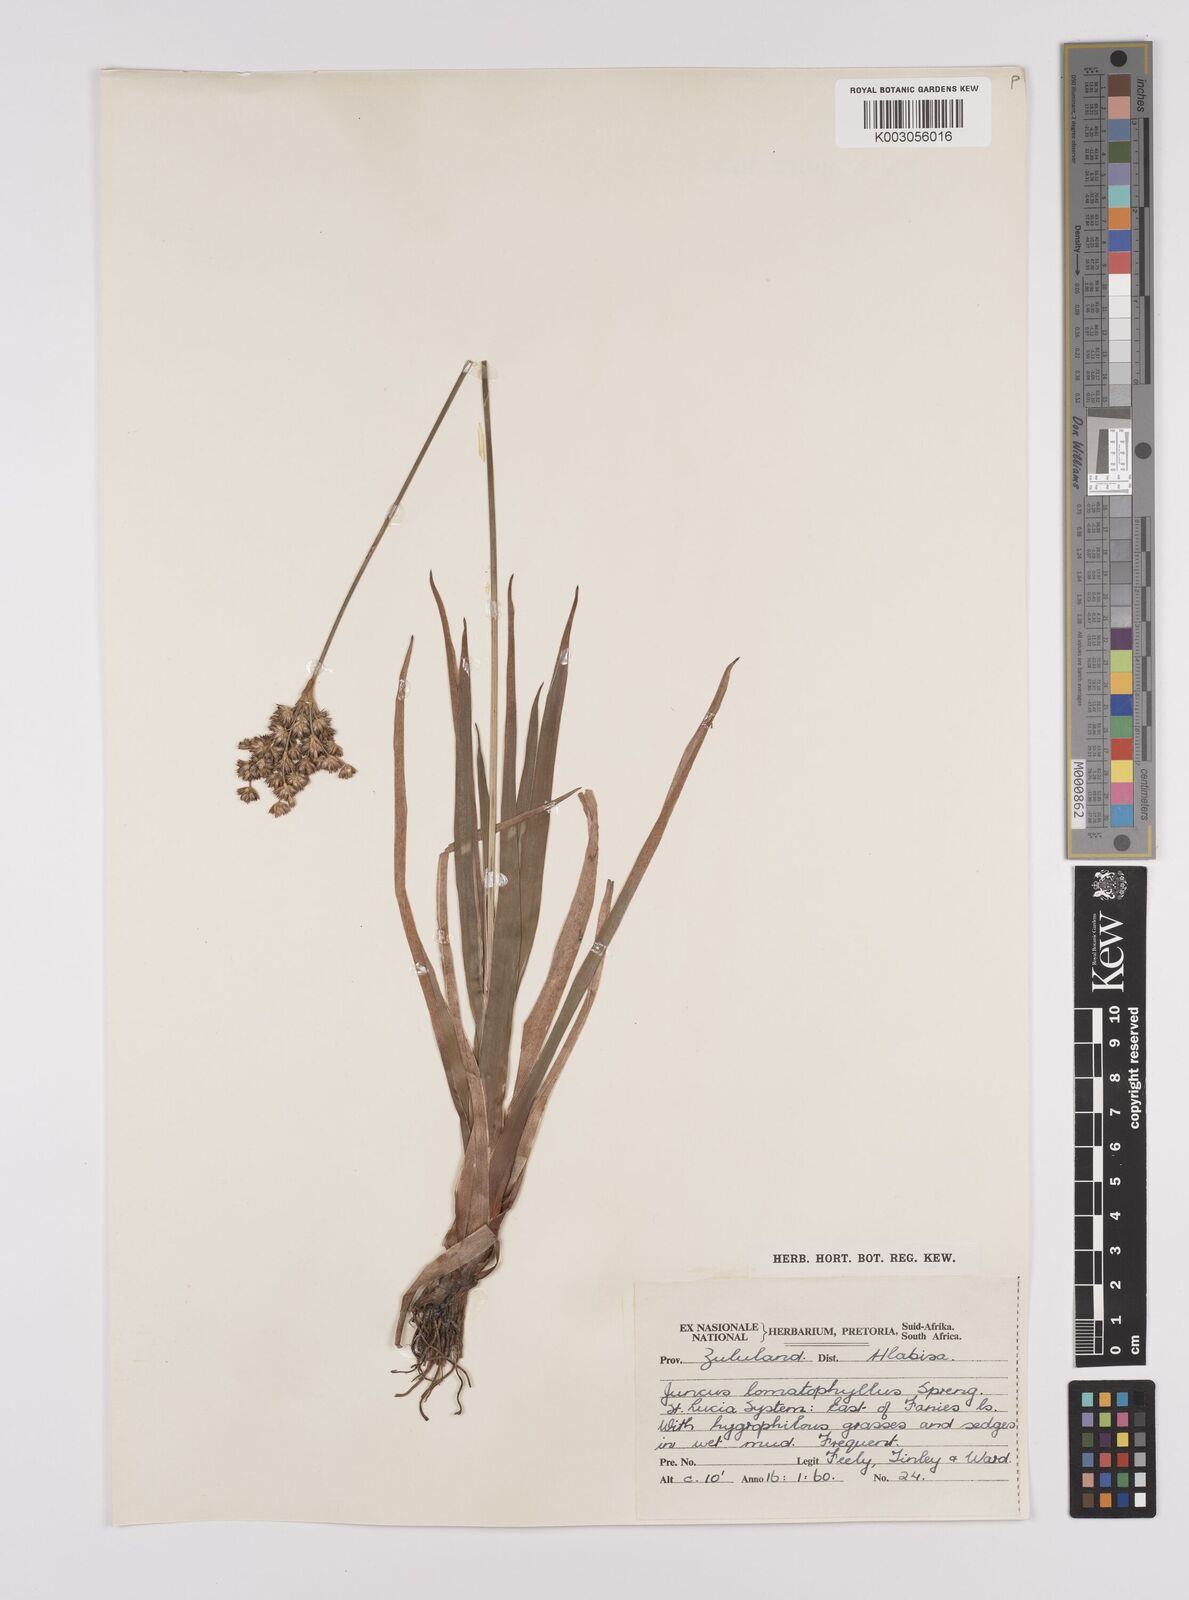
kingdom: Plantae
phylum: Tracheophyta
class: Liliopsida
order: Poales
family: Juncaceae
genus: Juncus
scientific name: Juncus lomatophyllus
